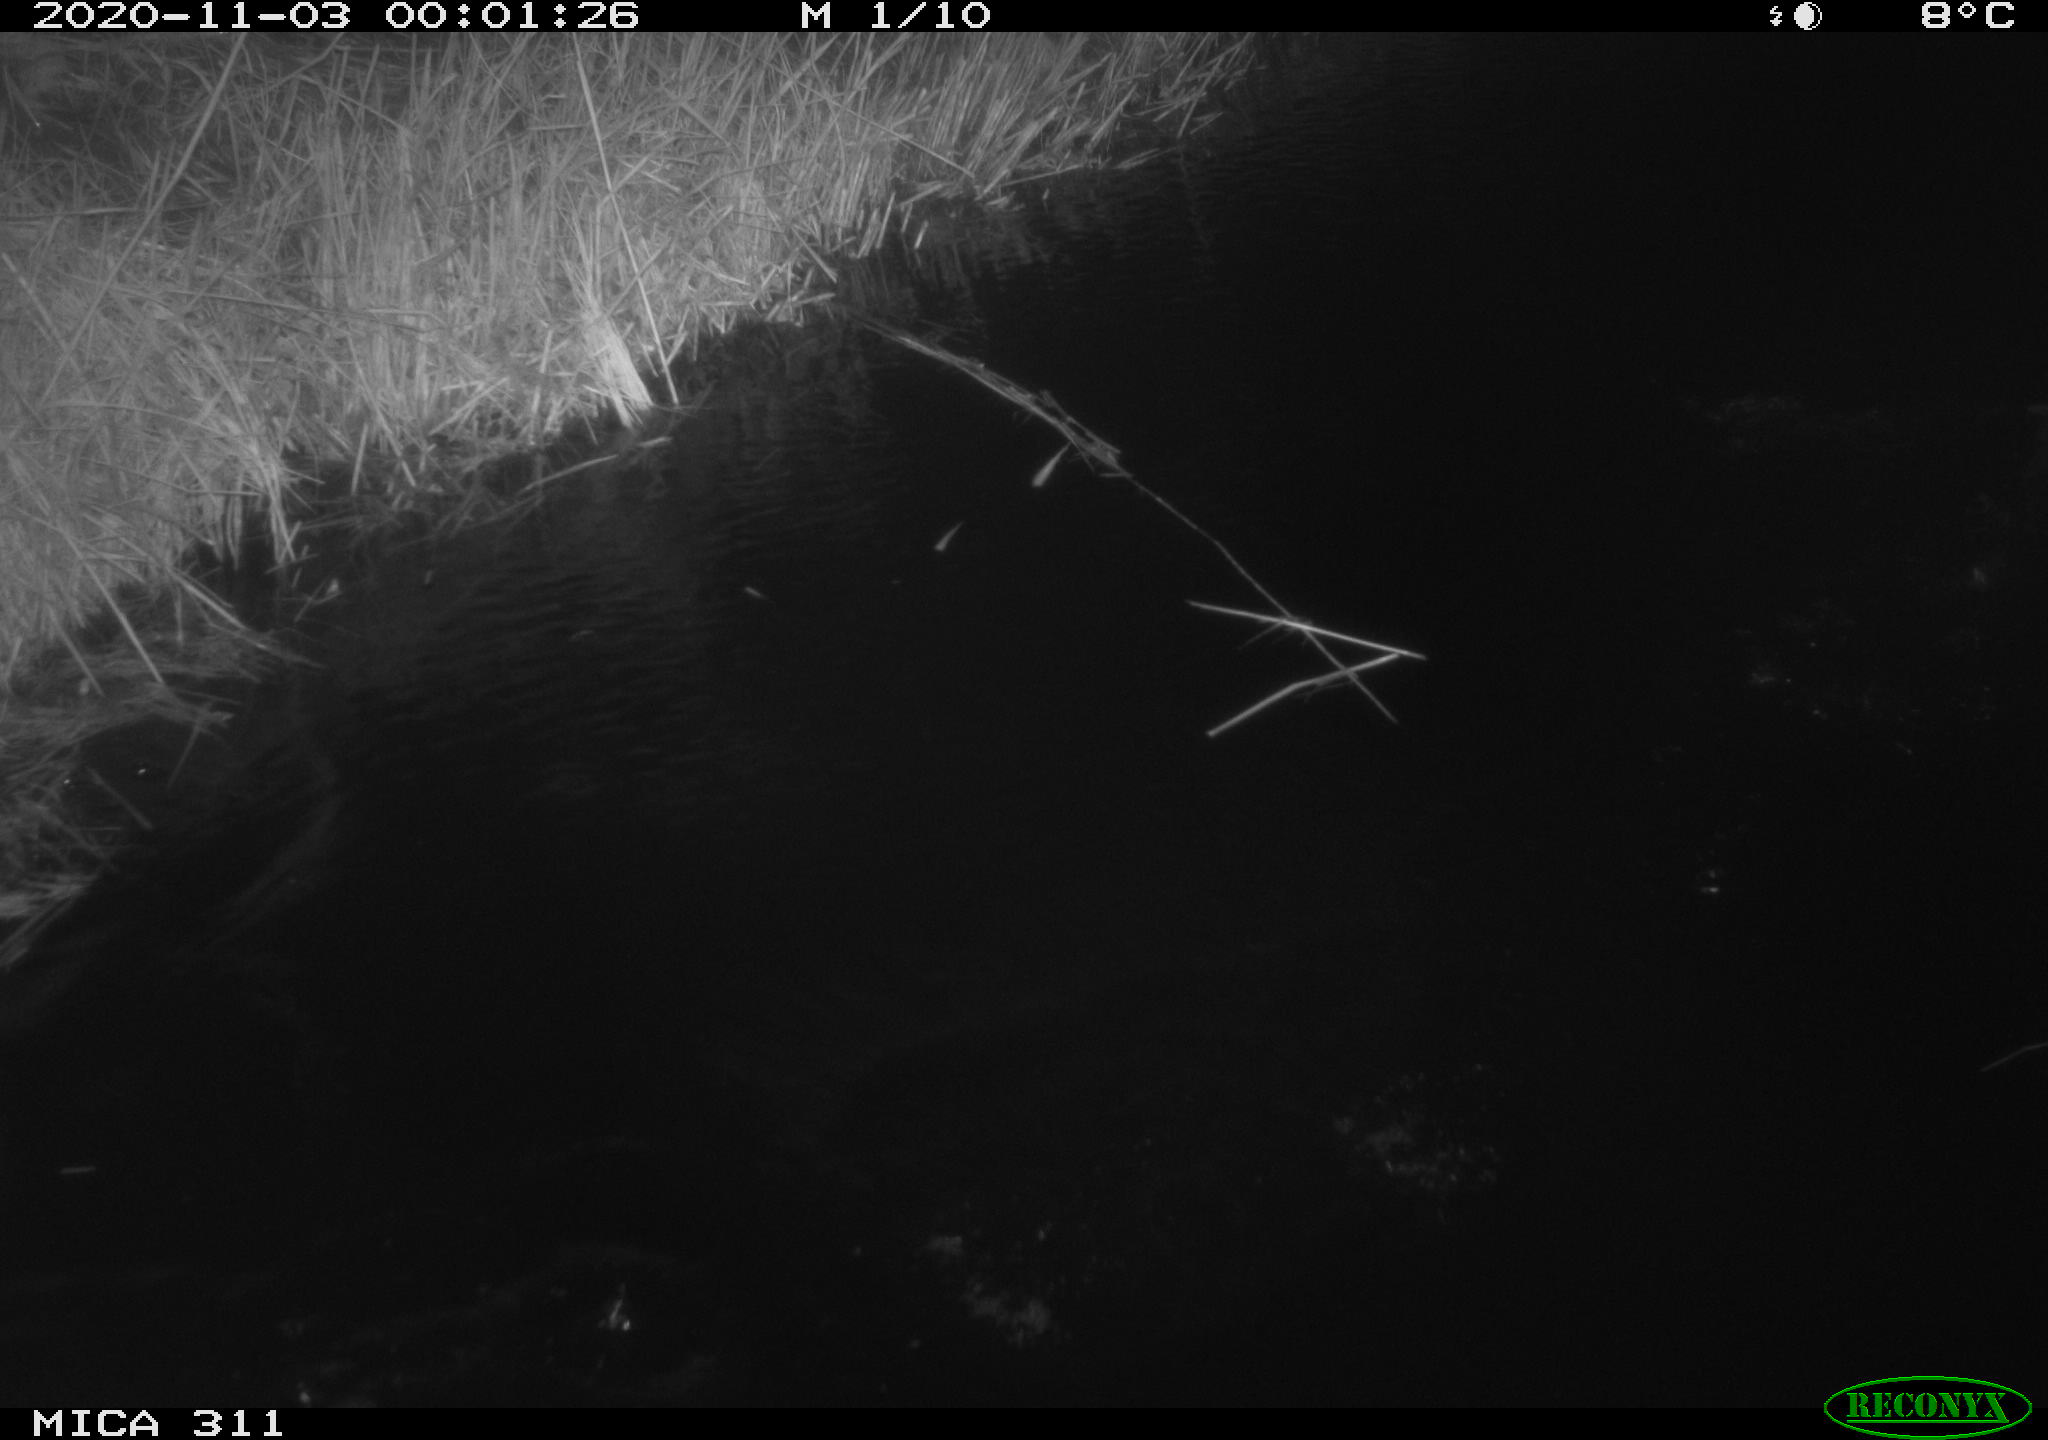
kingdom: Animalia
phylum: Chordata
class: Aves
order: Gruiformes
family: Rallidae
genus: Gallinula
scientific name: Gallinula chloropus
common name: Common moorhen
